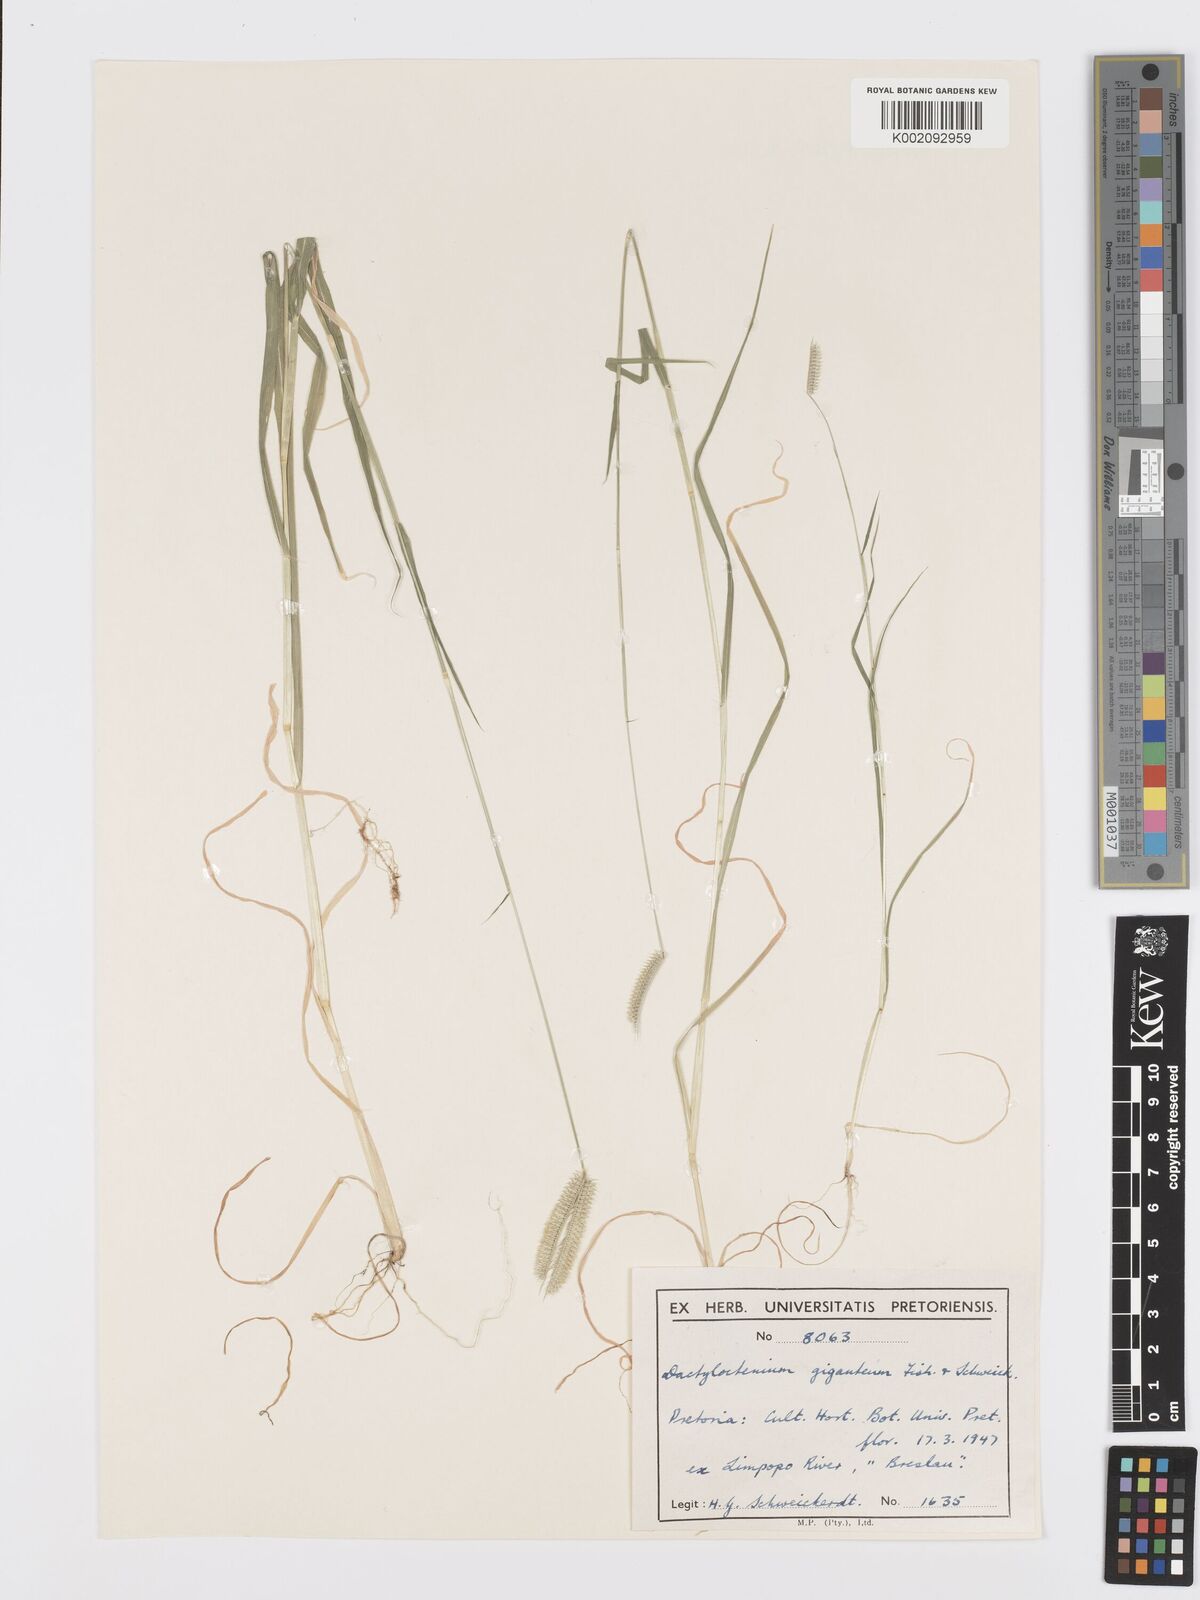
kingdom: Plantae
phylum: Tracheophyta
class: Liliopsida
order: Poales
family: Poaceae
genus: Dactyloctenium
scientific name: Dactyloctenium giganteum
